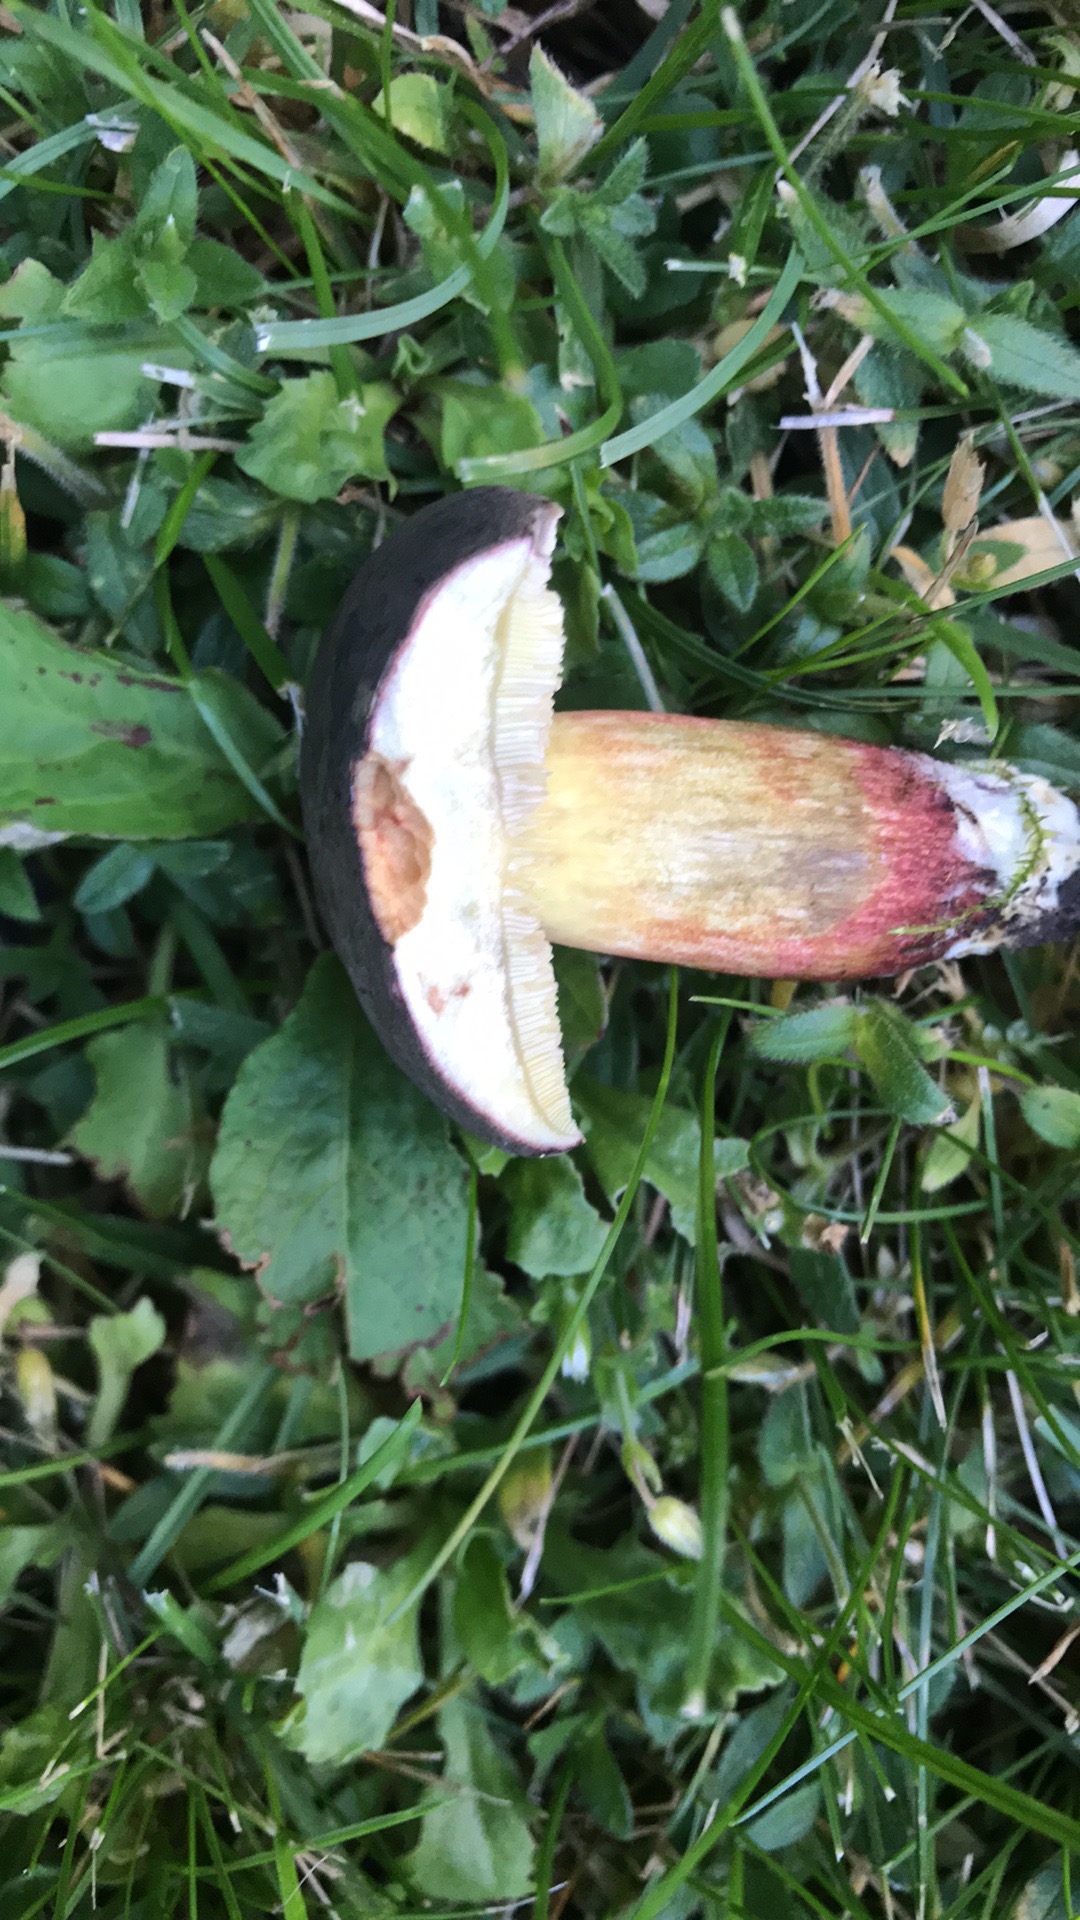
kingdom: Fungi
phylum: Basidiomycota
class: Agaricomycetes
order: Boletales
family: Boletaceae
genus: Xerocomellus
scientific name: Xerocomellus
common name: dværgrørhat
